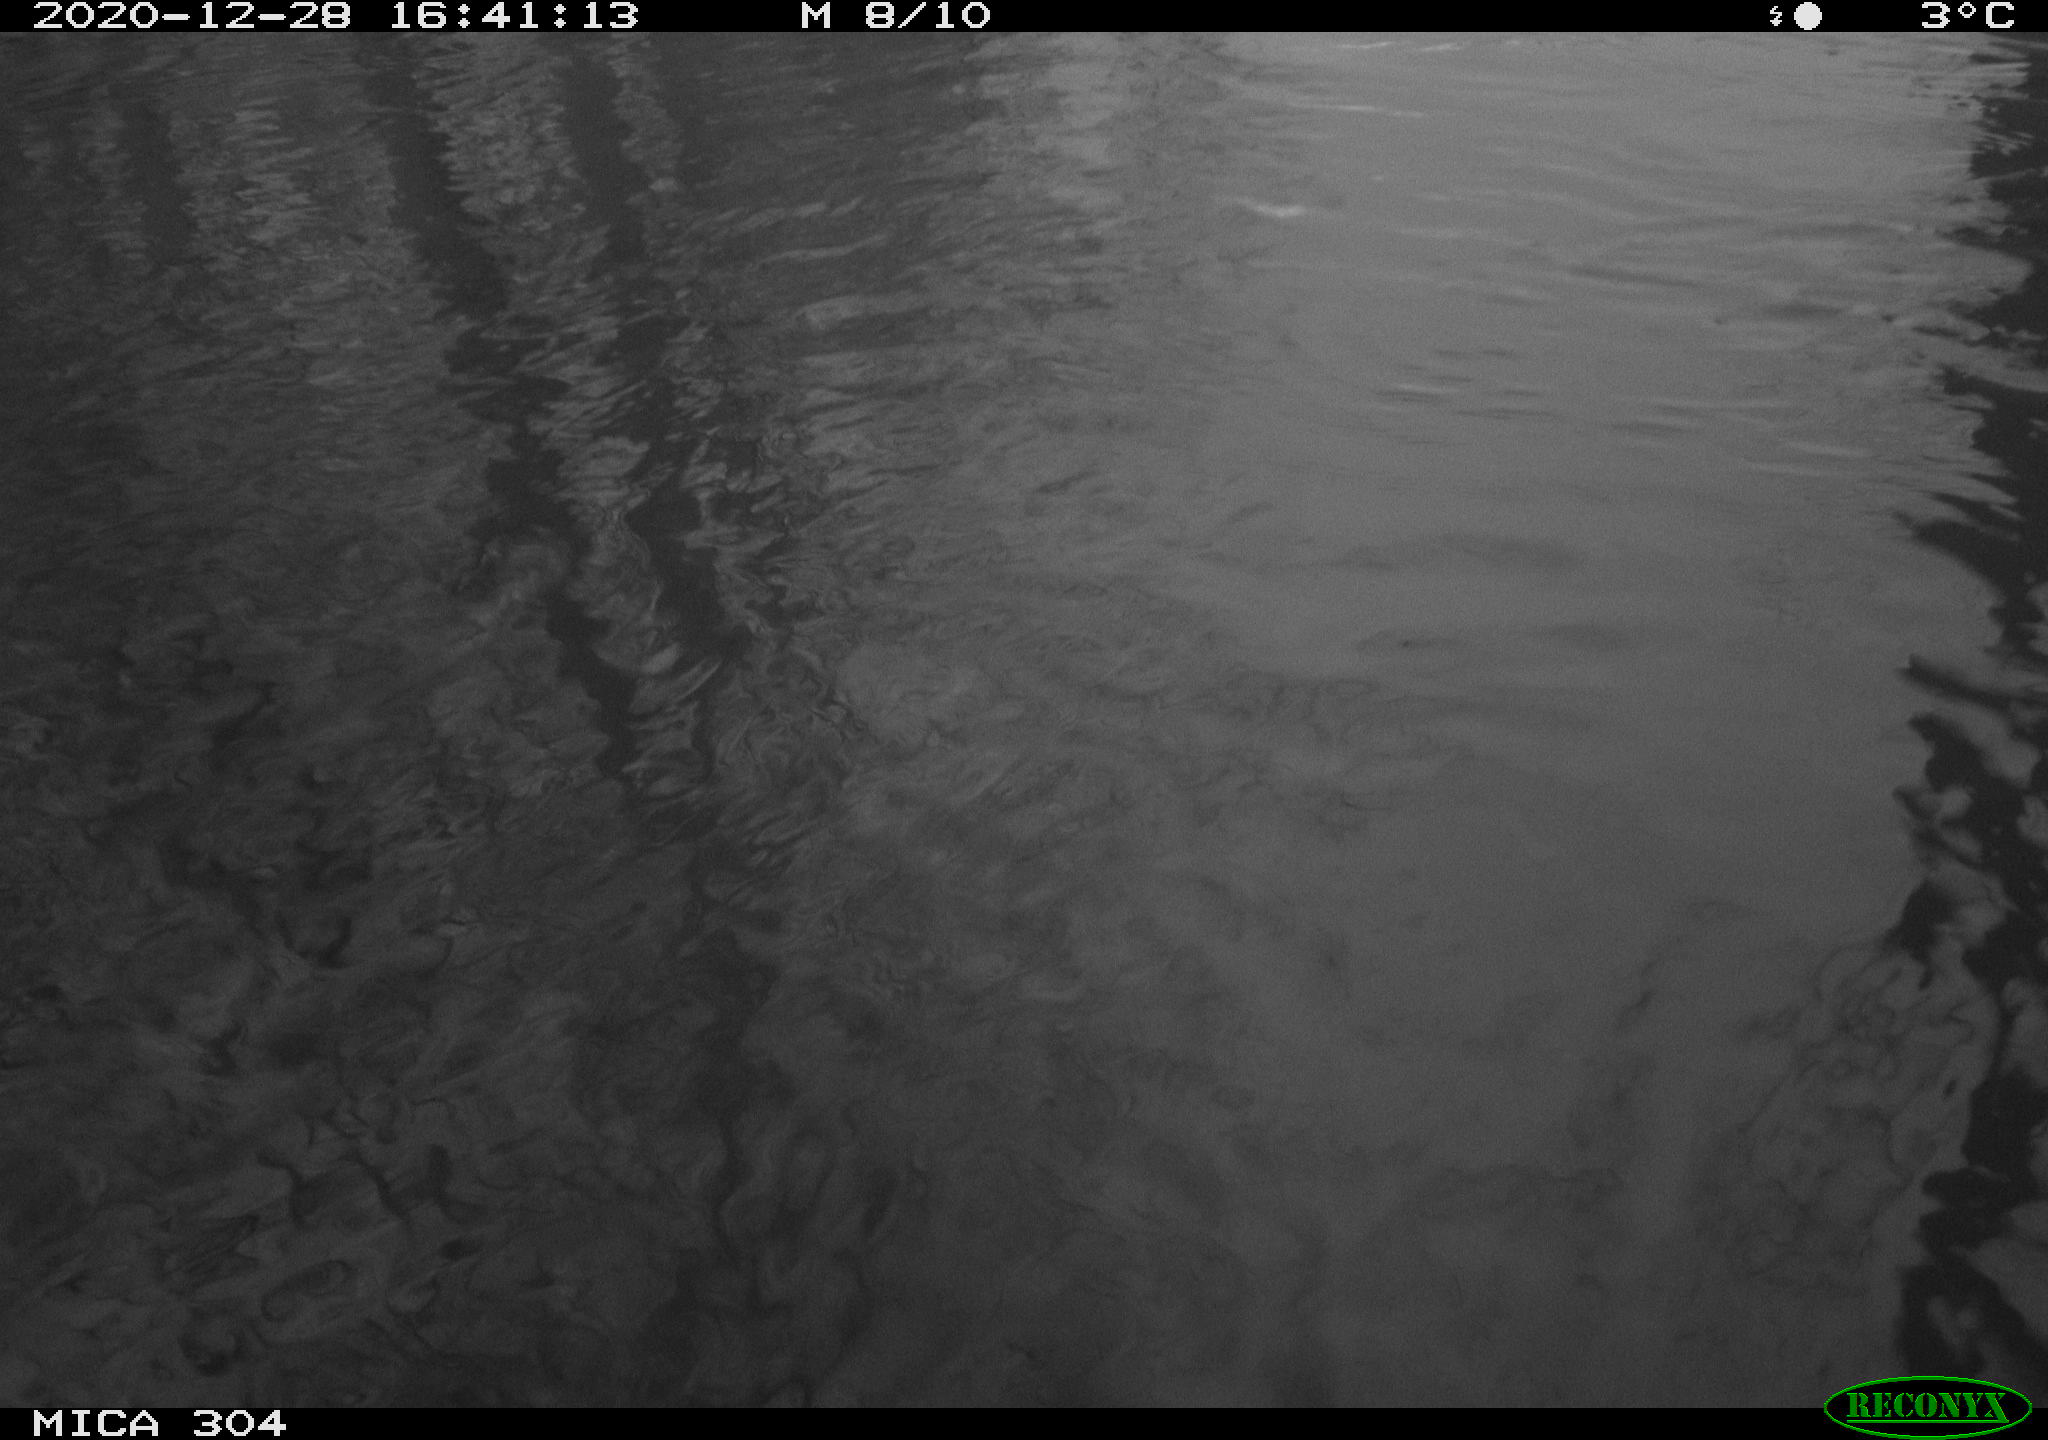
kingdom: Animalia
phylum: Chordata
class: Aves
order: Gruiformes
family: Rallidae
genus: Gallinula
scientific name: Gallinula chloropus
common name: Common moorhen
